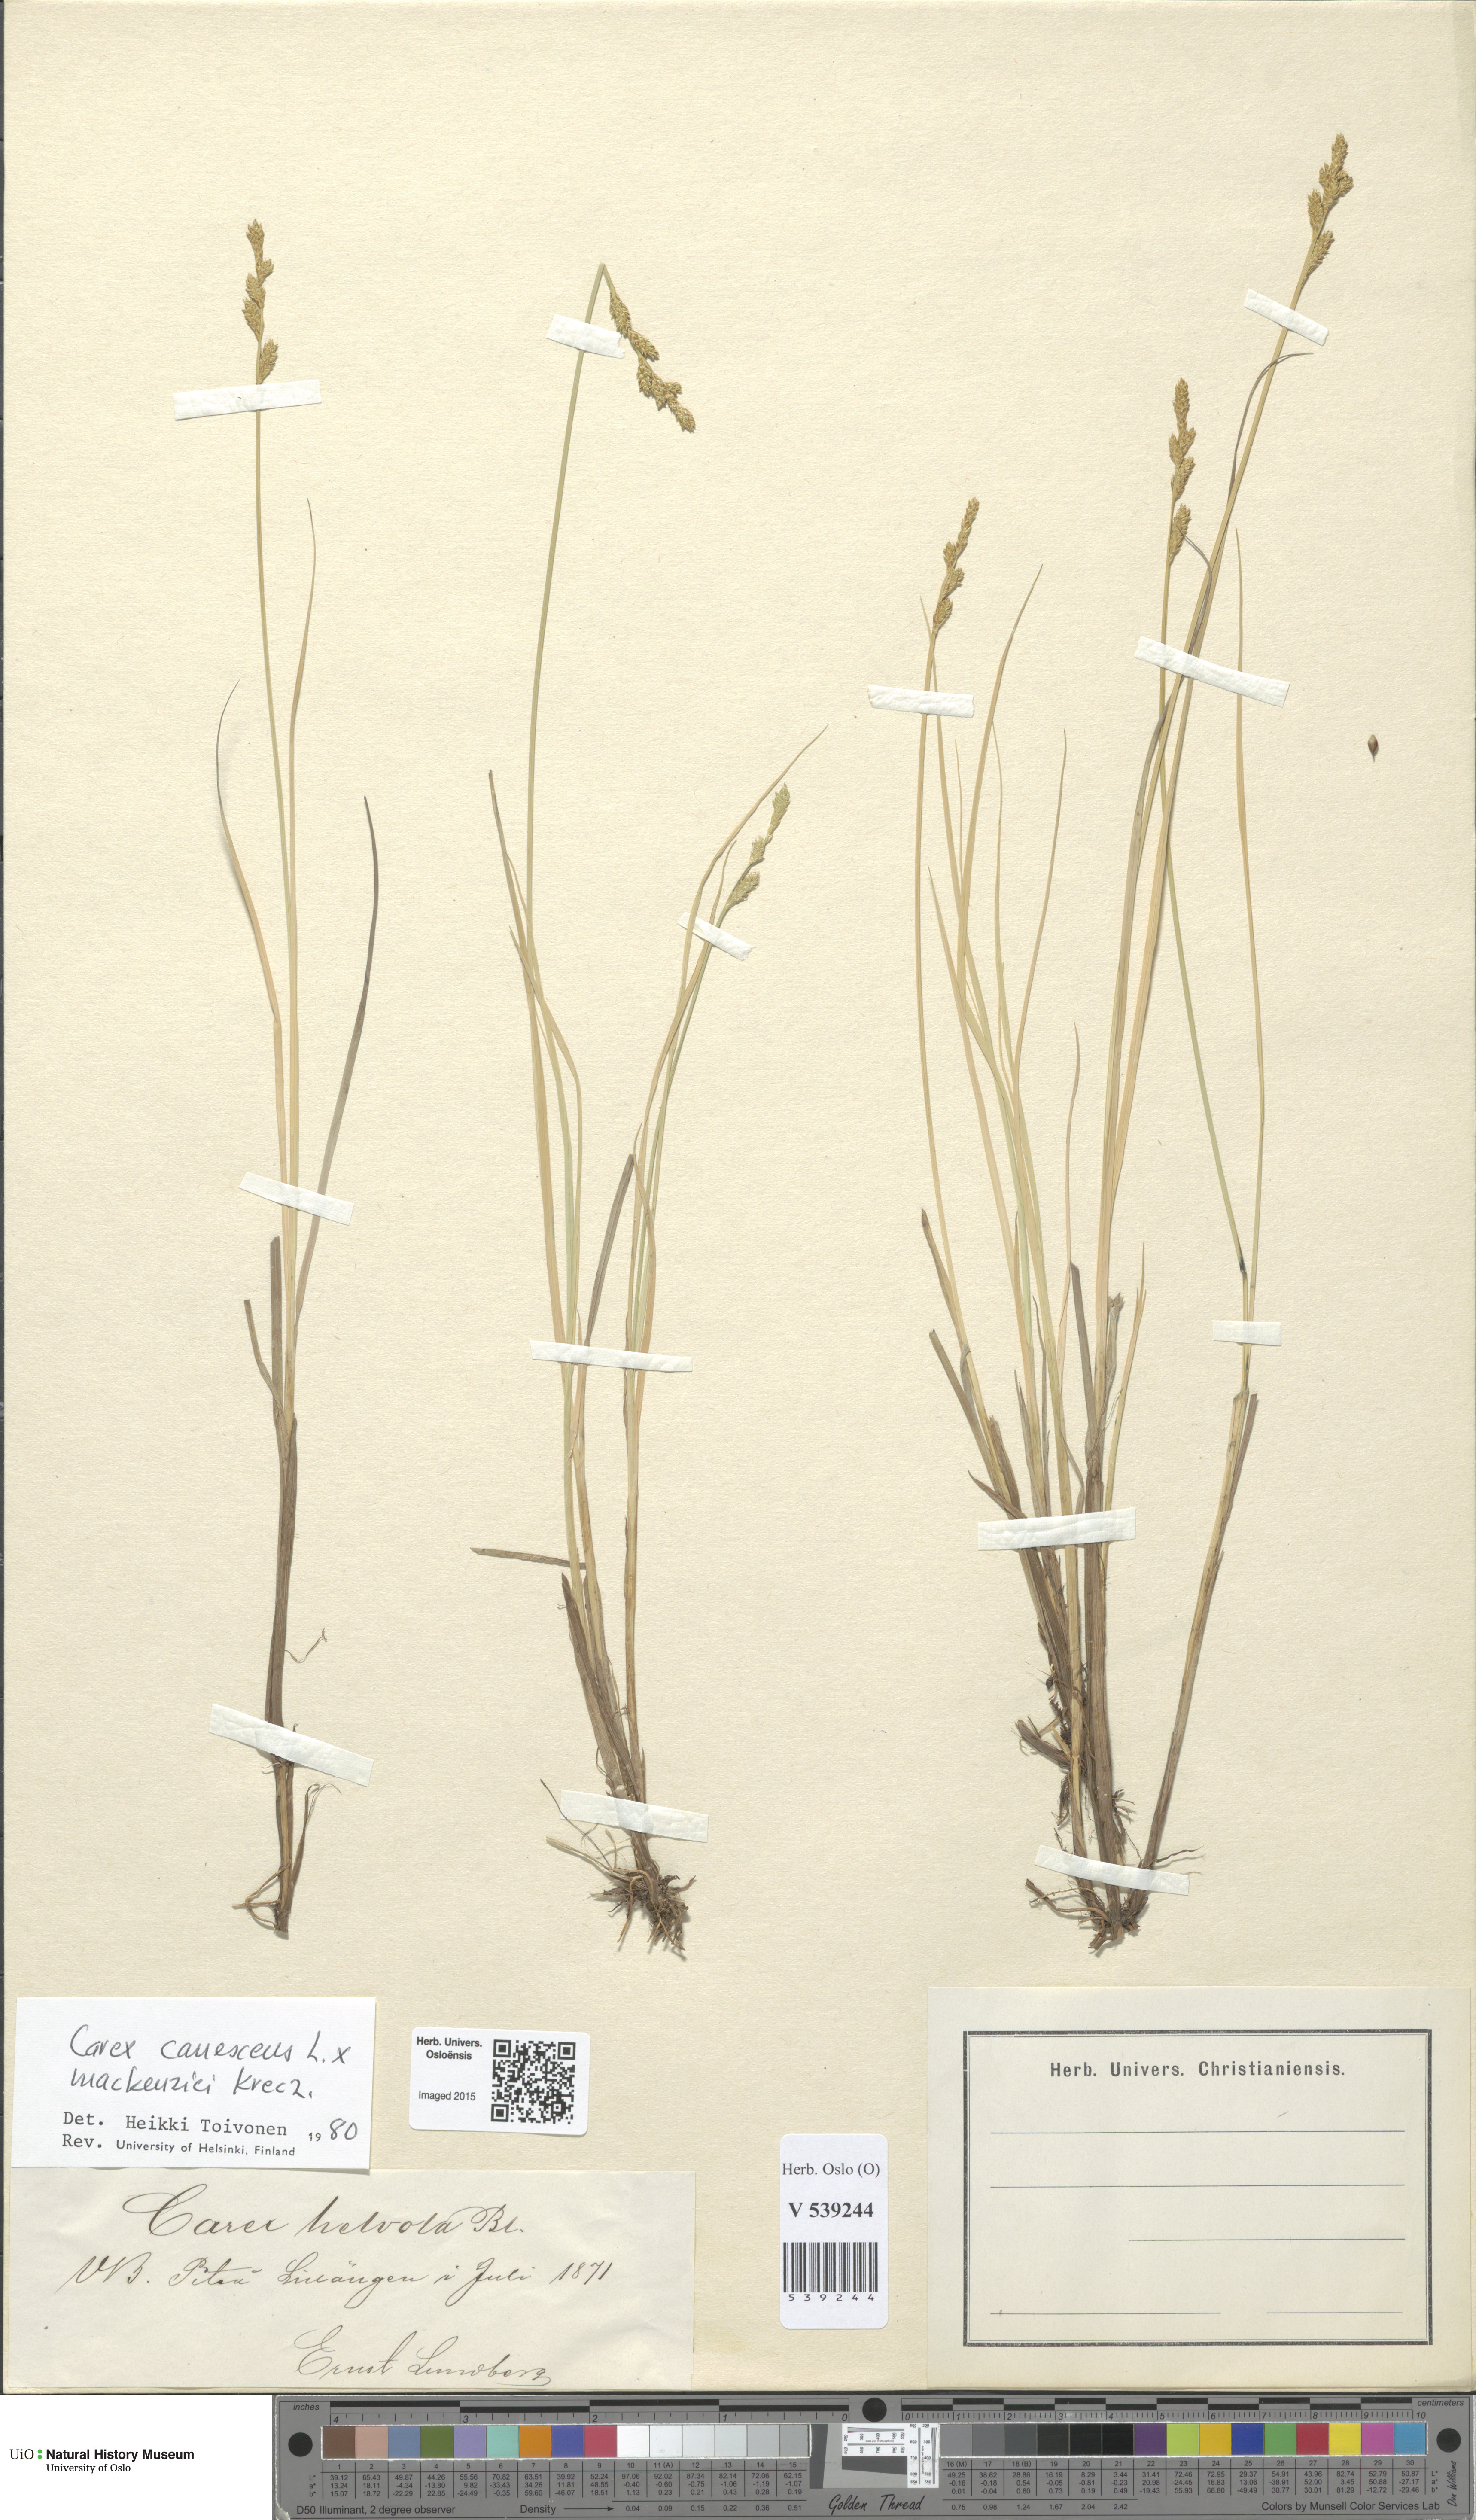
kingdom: Plantae
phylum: Tracheophyta
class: Liliopsida
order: Poales
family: Cyperaceae
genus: Carex
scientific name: Carex
